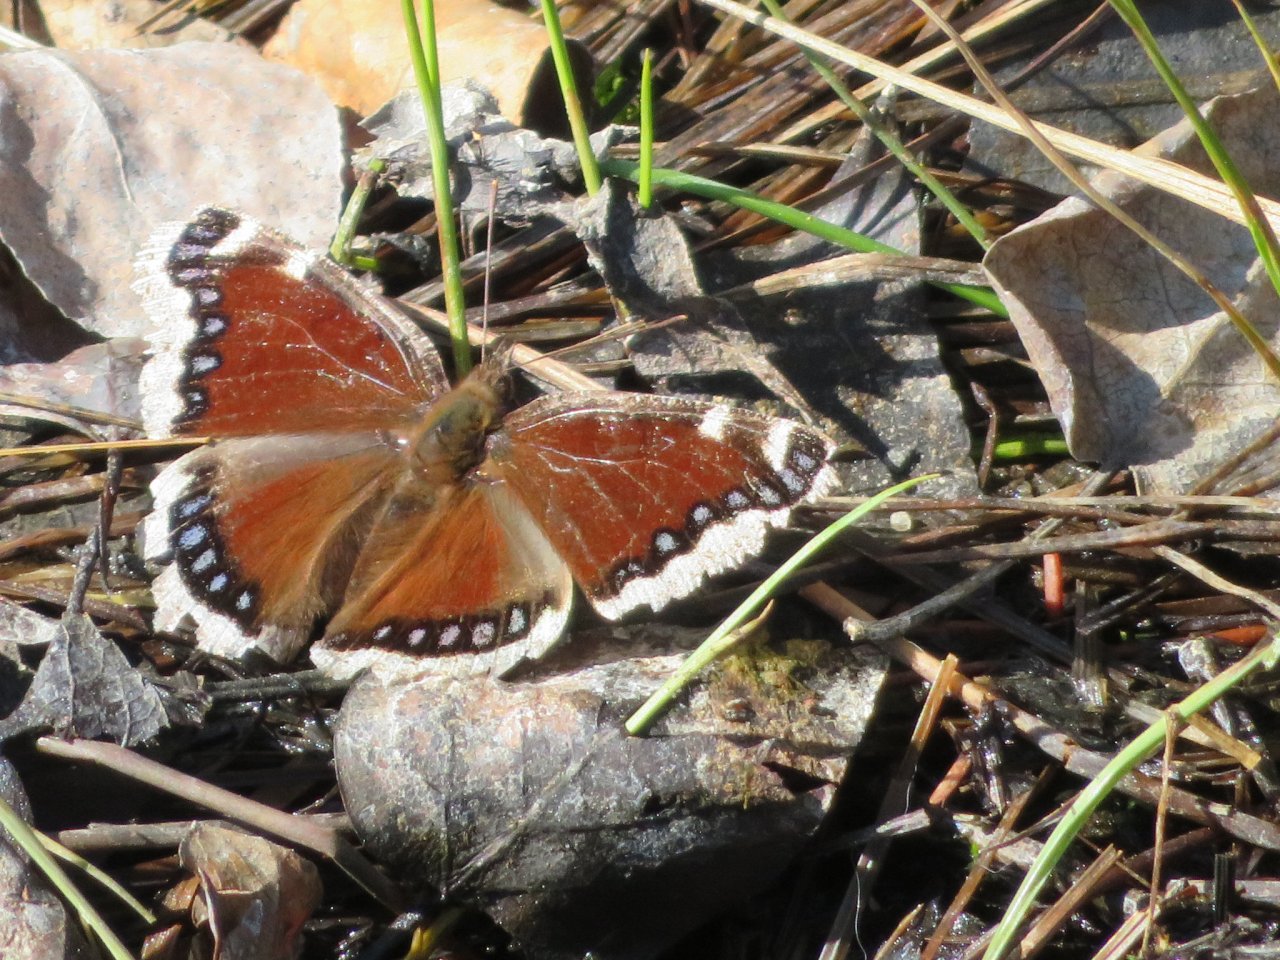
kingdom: Animalia
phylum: Arthropoda
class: Insecta
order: Lepidoptera
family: Nymphalidae
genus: Nymphalis
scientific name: Nymphalis antiopa
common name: Mourning Cloak
